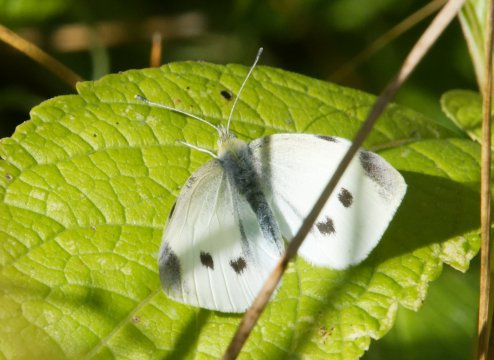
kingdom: Animalia
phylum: Arthropoda
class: Insecta
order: Lepidoptera
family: Pieridae
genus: Pieris
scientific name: Pieris rapae
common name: Cabbage White
